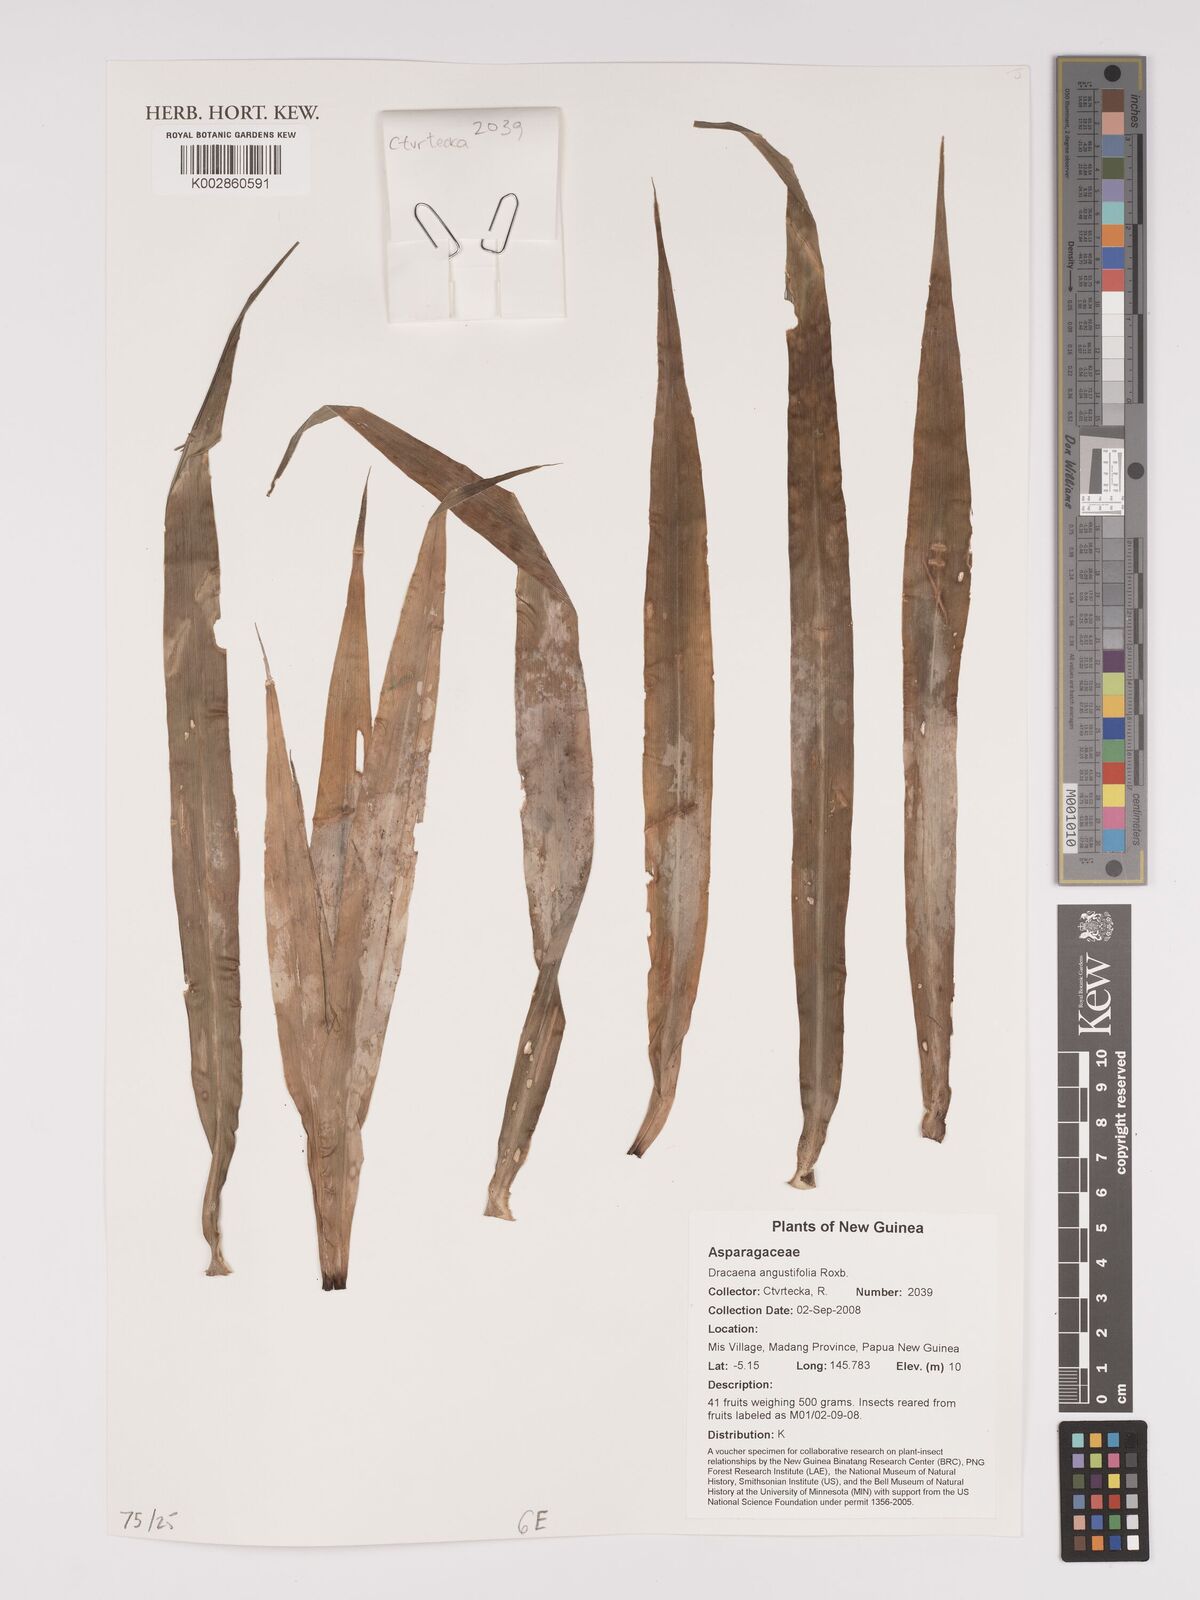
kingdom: Plantae
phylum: Tracheophyta
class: Liliopsida
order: Asparagales
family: Asparagaceae
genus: Dracaena
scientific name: Dracaena angustifolia
